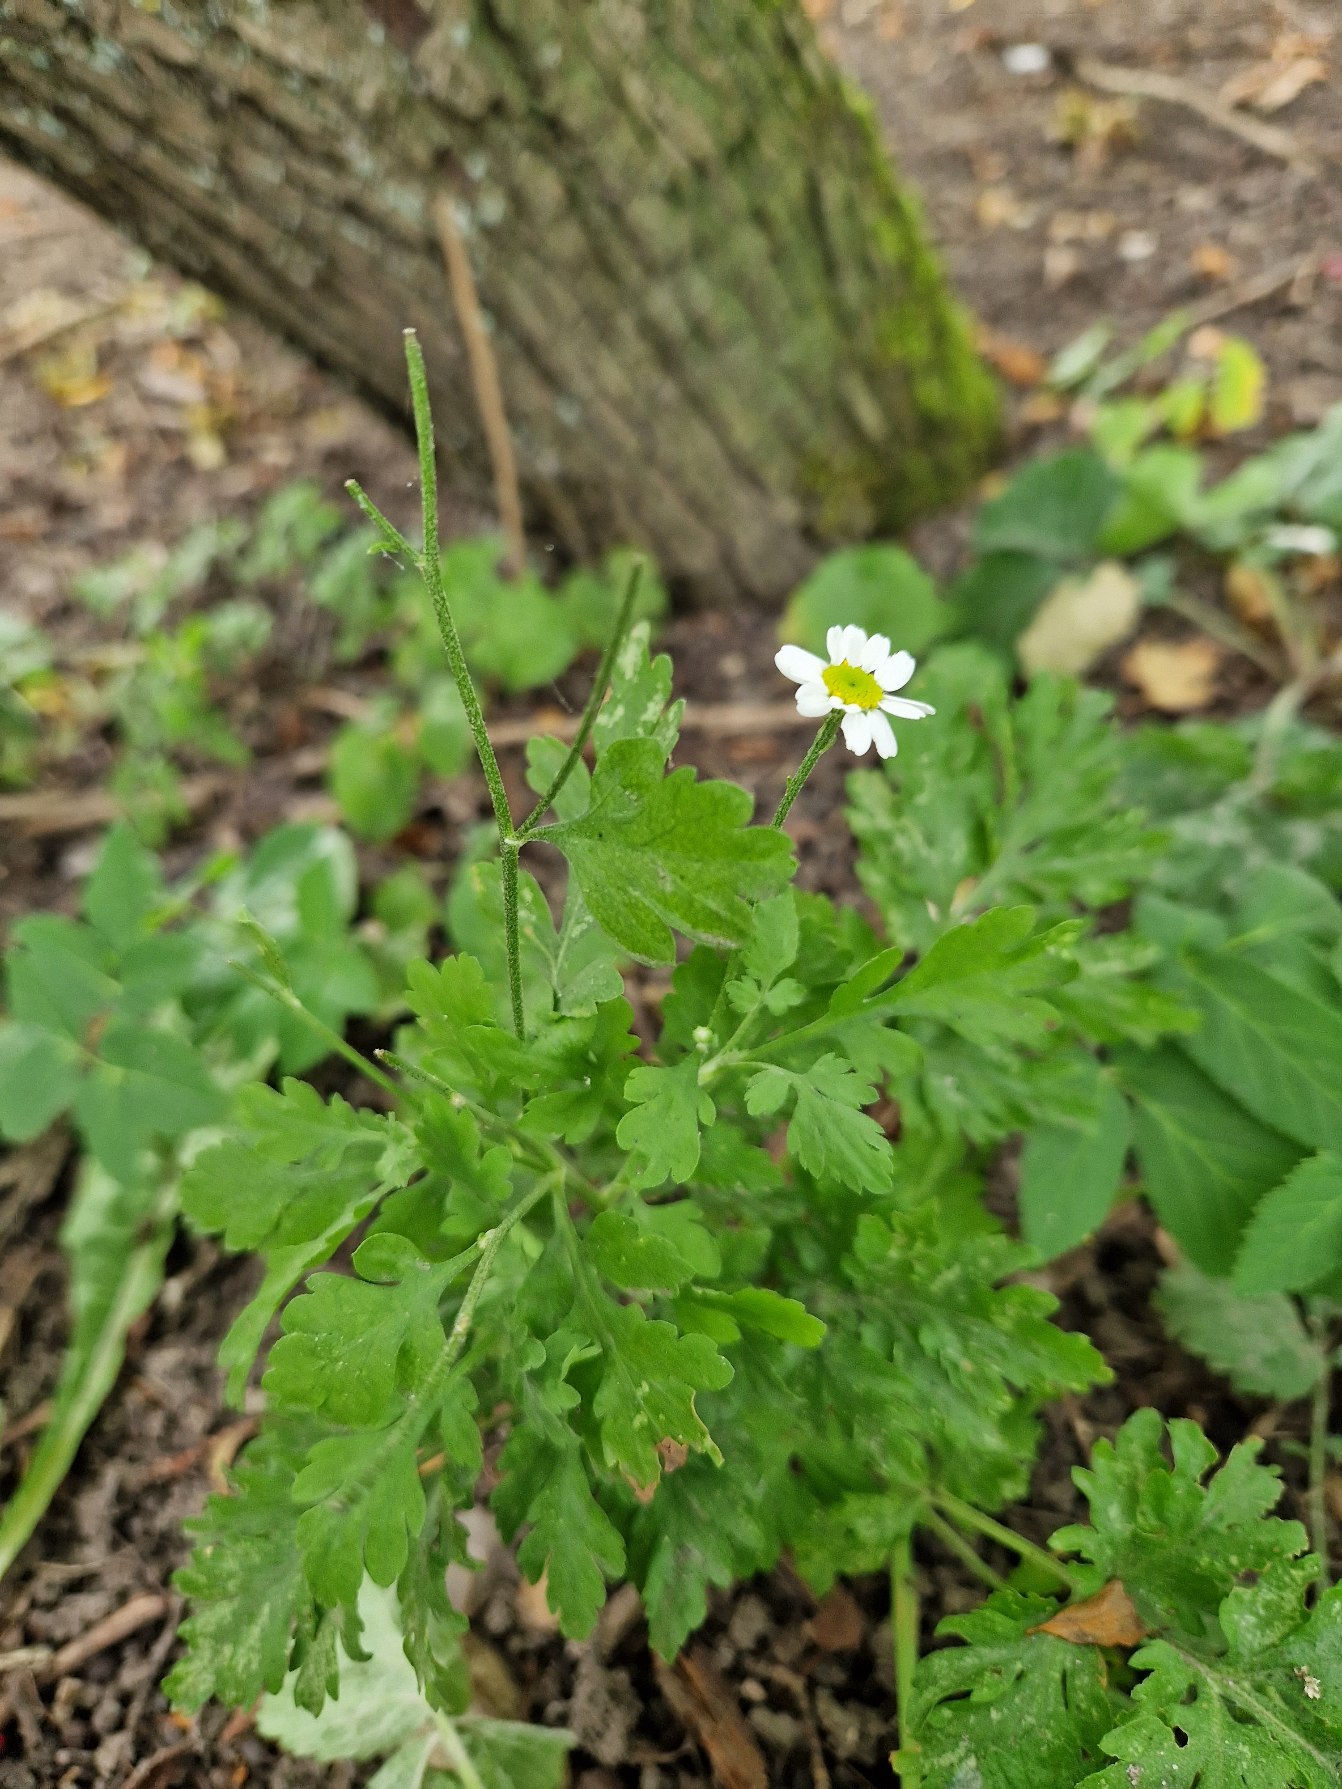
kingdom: Plantae
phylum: Tracheophyta
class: Magnoliopsida
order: Asterales
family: Asteraceae
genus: Tanacetum
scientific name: Tanacetum parthenium
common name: Matrem
